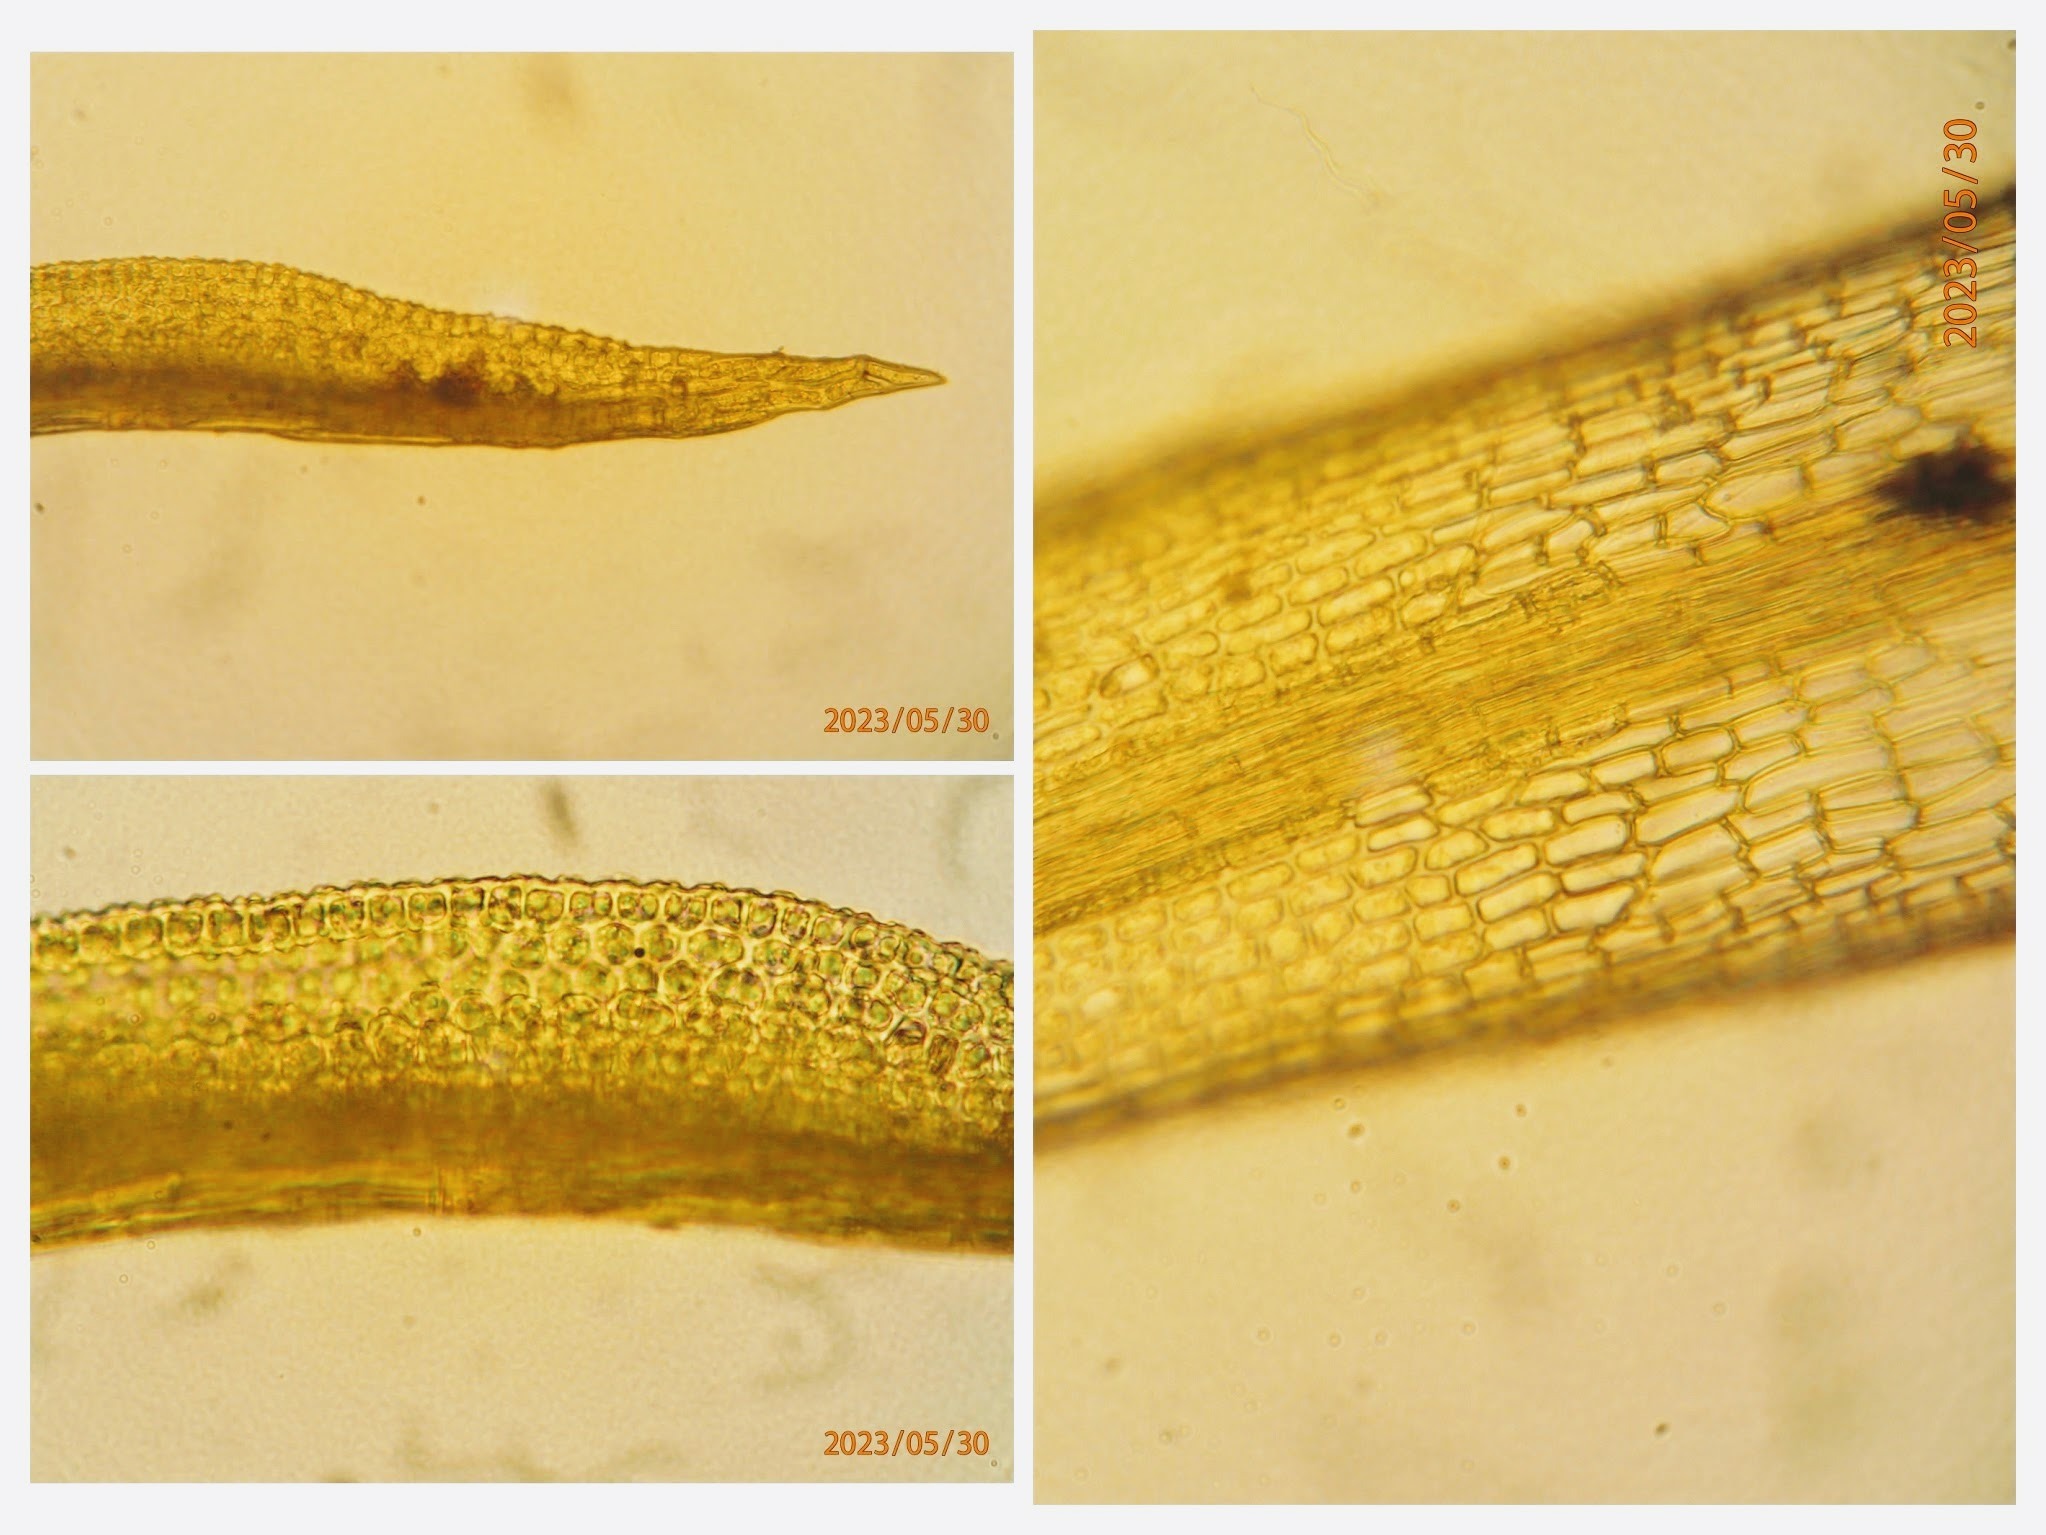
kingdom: Plantae
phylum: Bryophyta
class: Bryopsida
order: Pottiales
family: Pottiaceae
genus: Weissia
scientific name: Weissia brachycarpa
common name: Tykvægget hindemund
